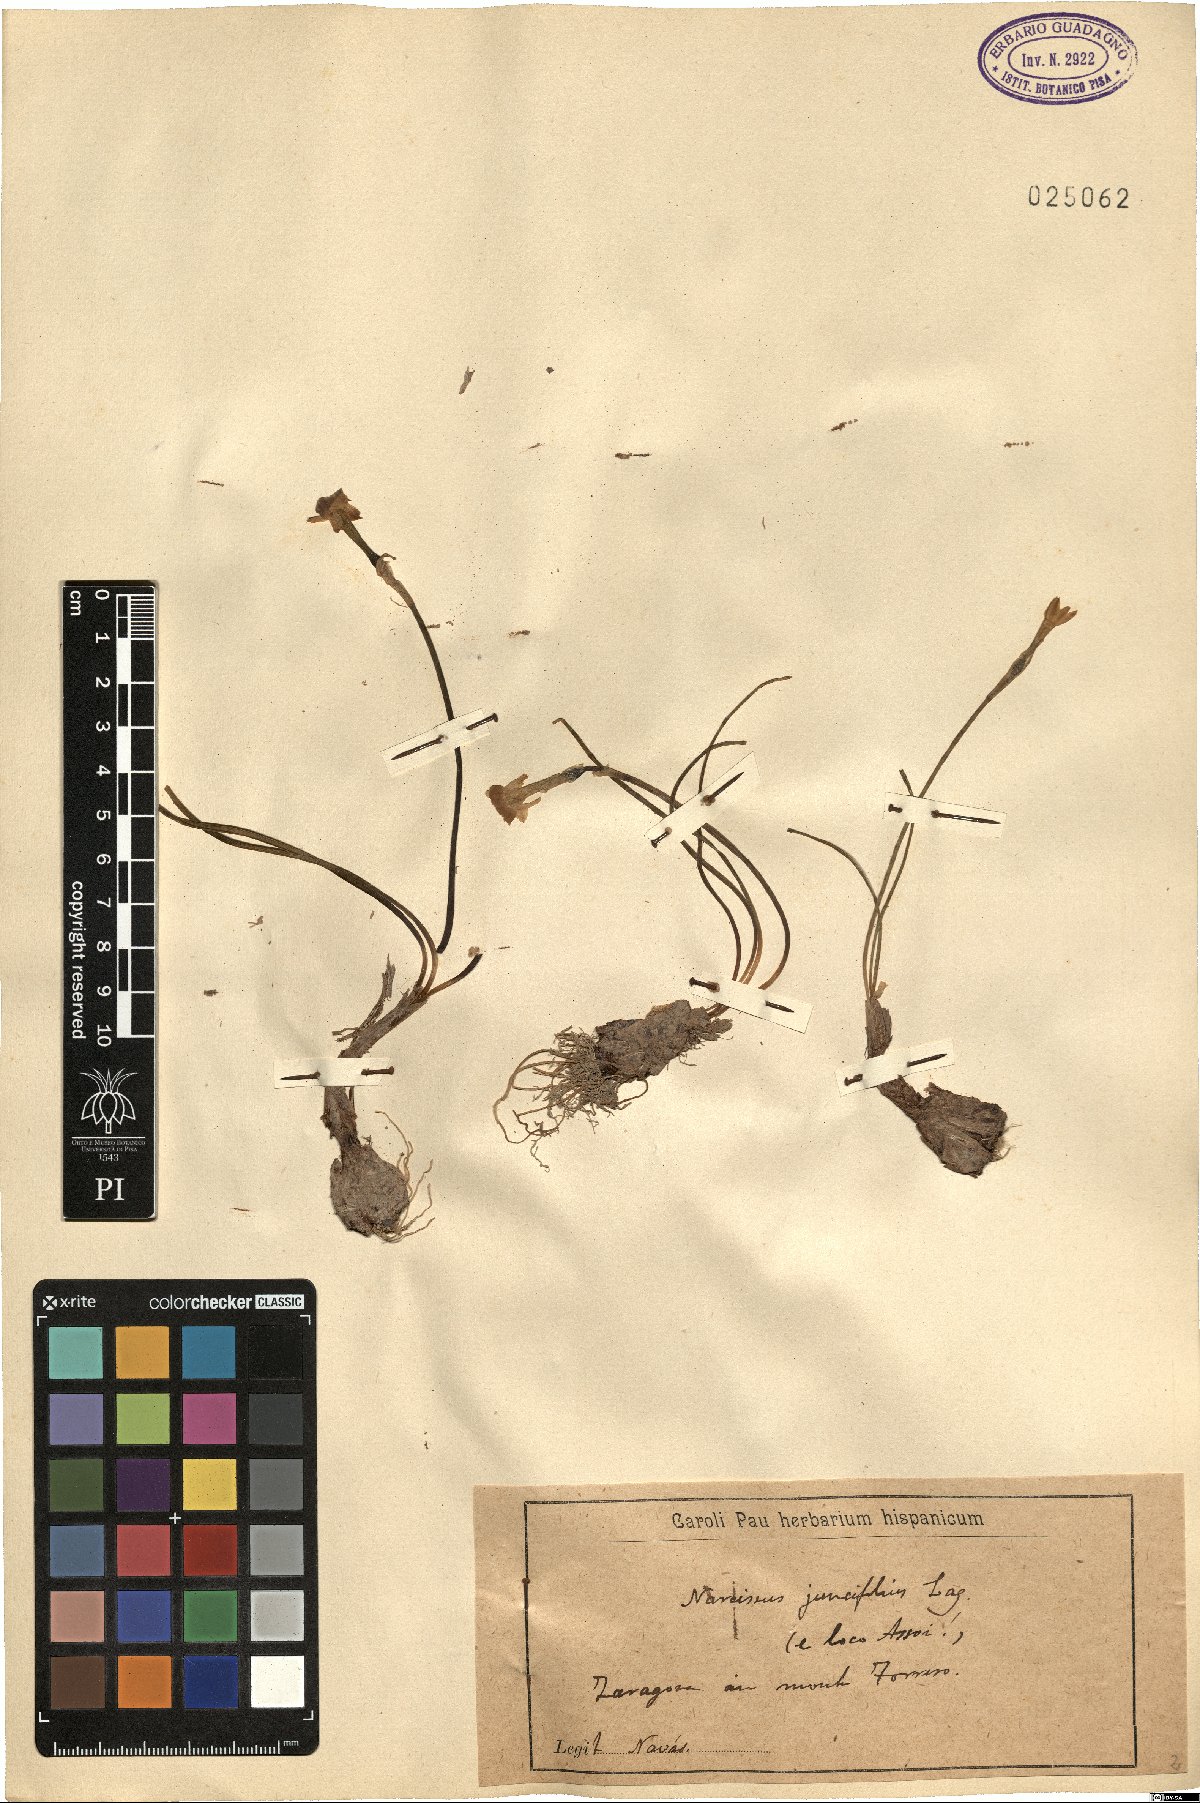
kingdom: Plantae
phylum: Tracheophyta
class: Liliopsida
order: Asparagales
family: Amaryllidaceae
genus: Narcissus
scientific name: Narcissus assoanus
